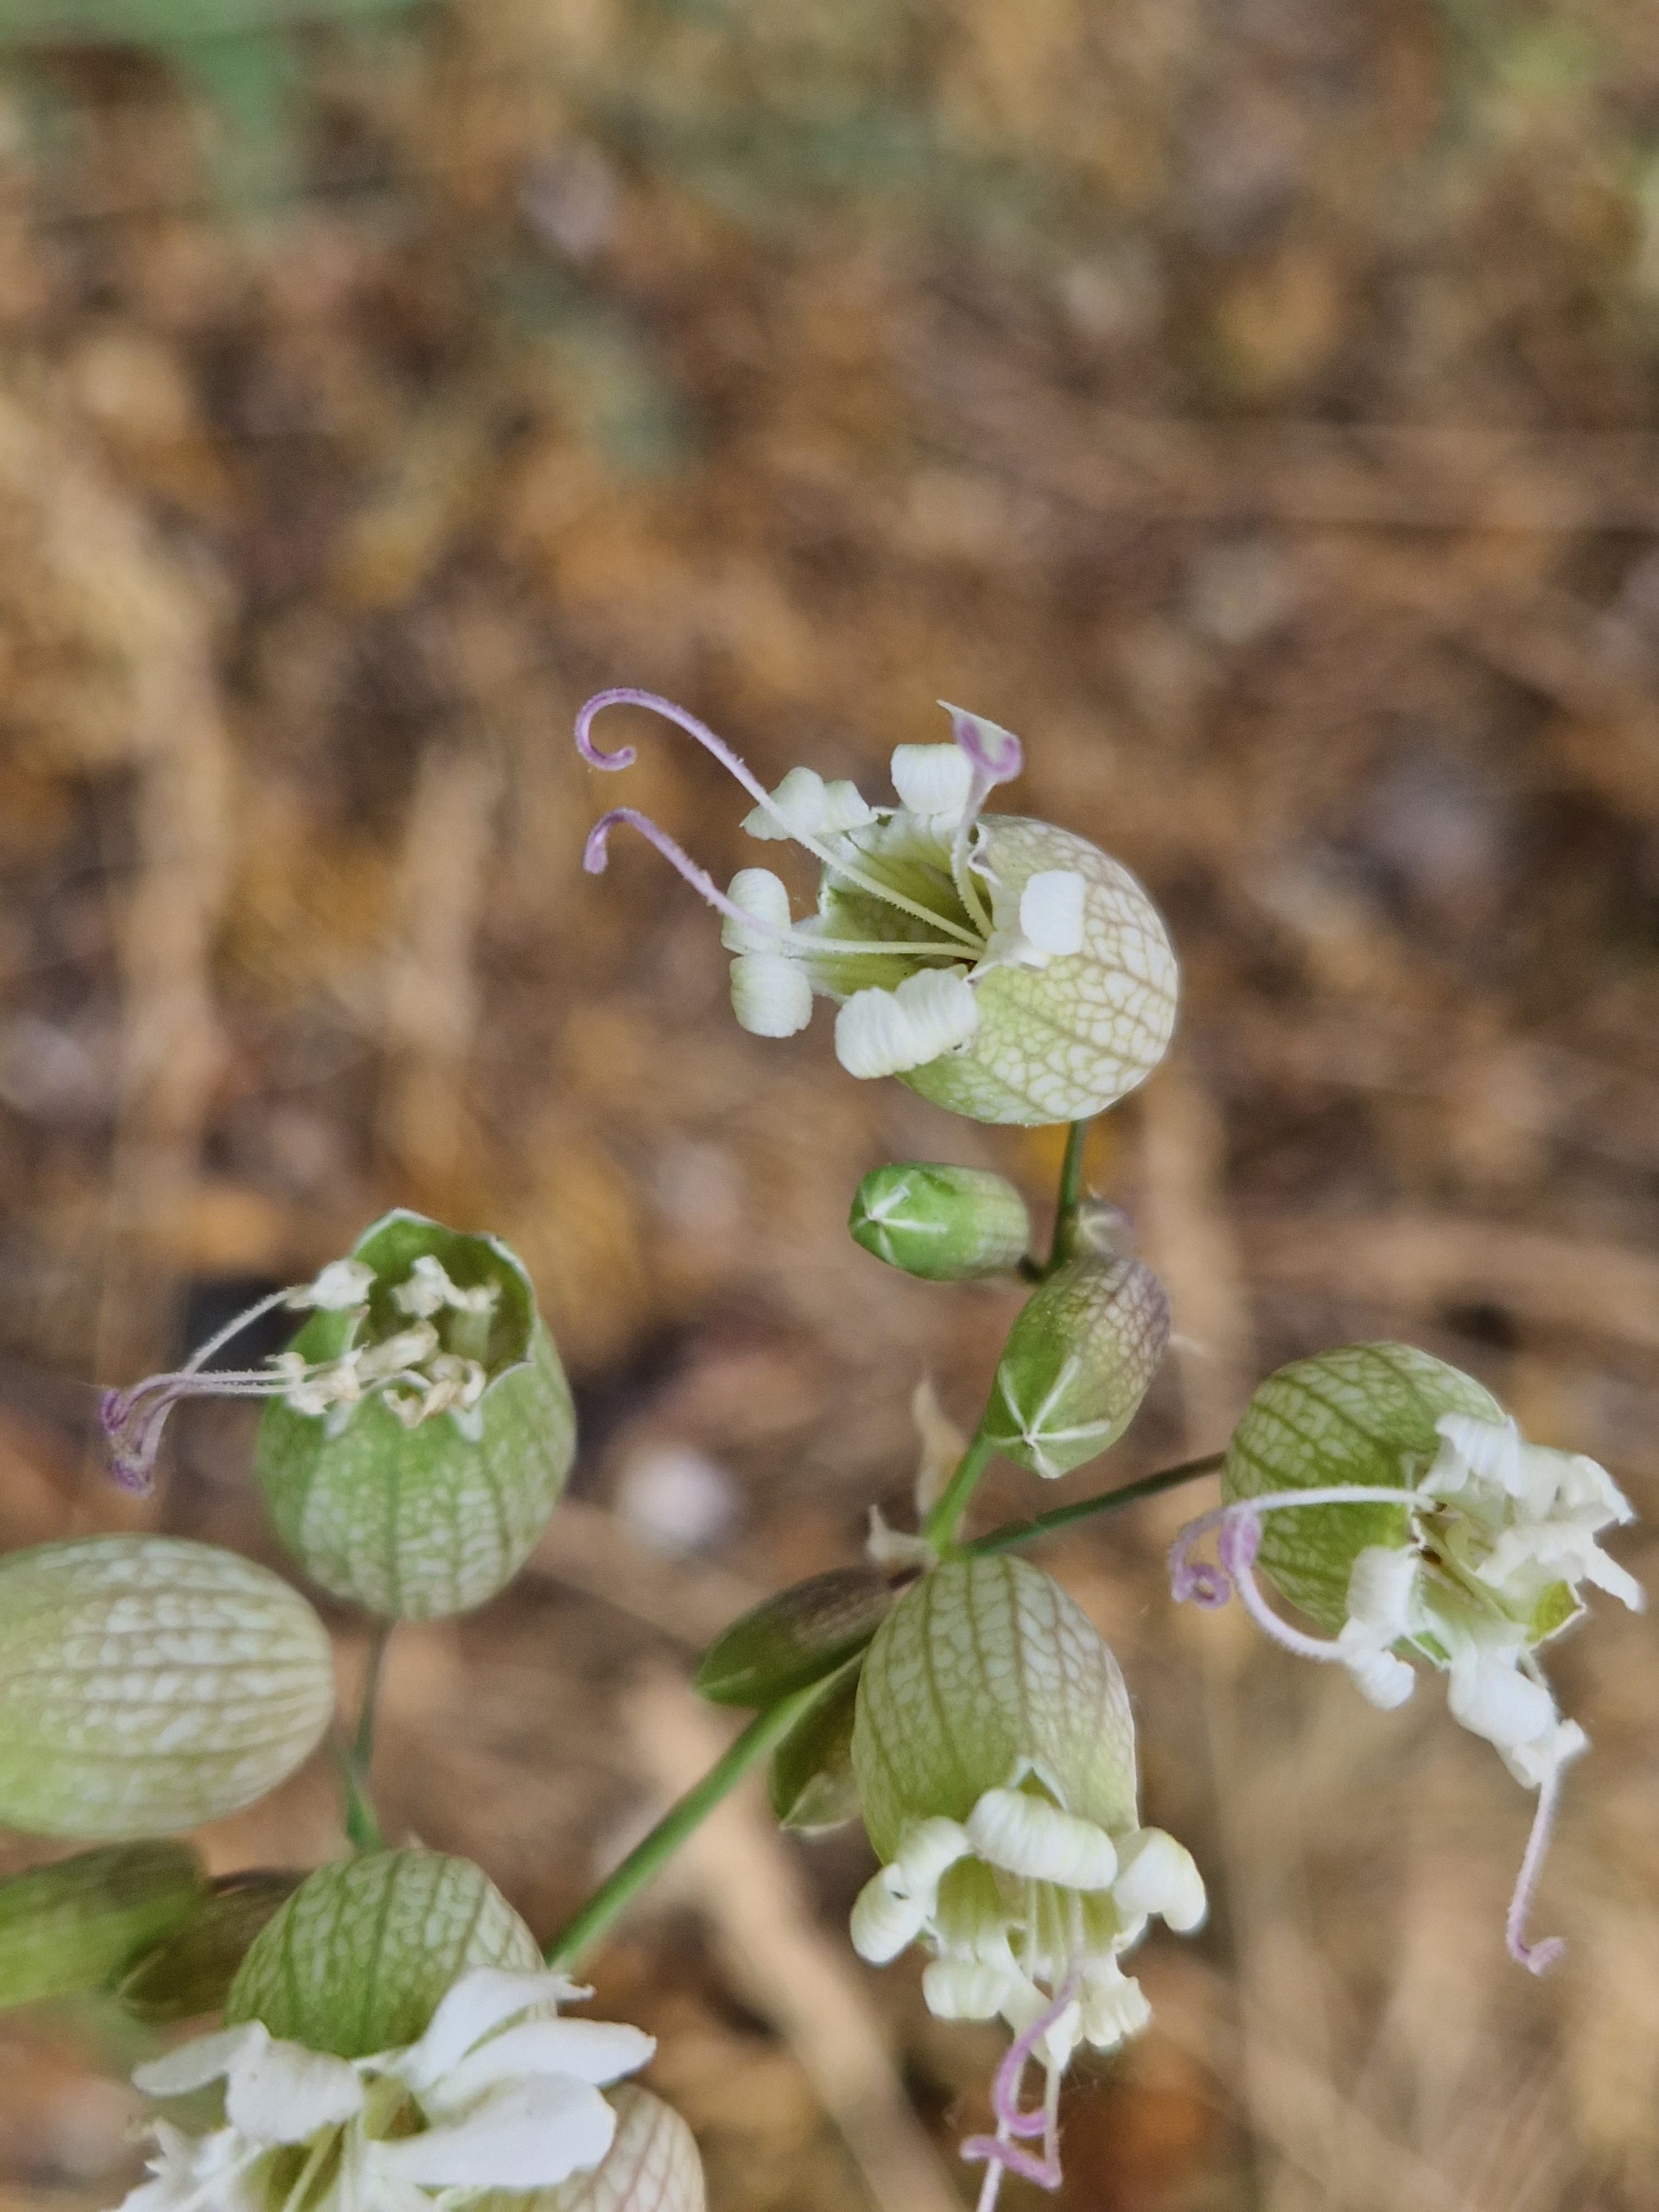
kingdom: Plantae
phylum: Tracheophyta
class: Magnoliopsida
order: Caryophyllales
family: Caryophyllaceae
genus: Silene
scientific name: Silene vulgaris
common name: Blæresmælde
